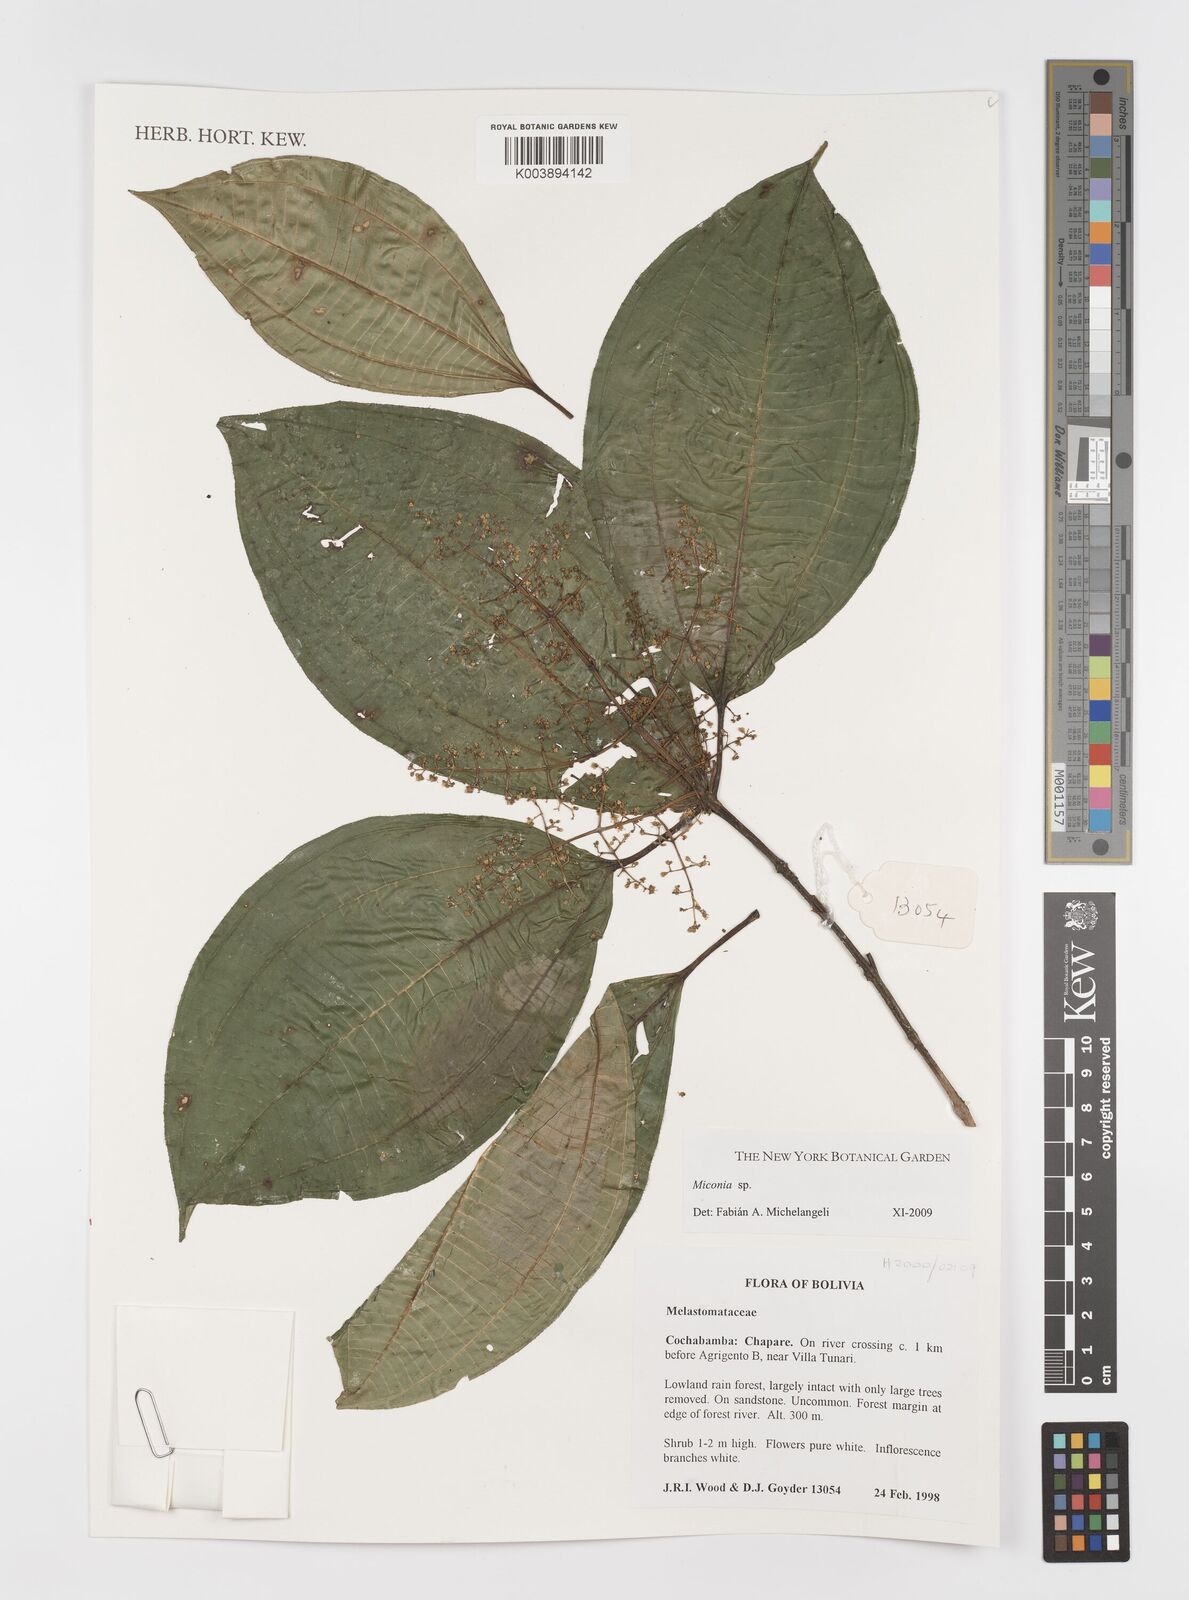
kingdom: Plantae
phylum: Tracheophyta
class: Magnoliopsida
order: Myrtales
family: Melastomataceae
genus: Miconia
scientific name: Miconia
